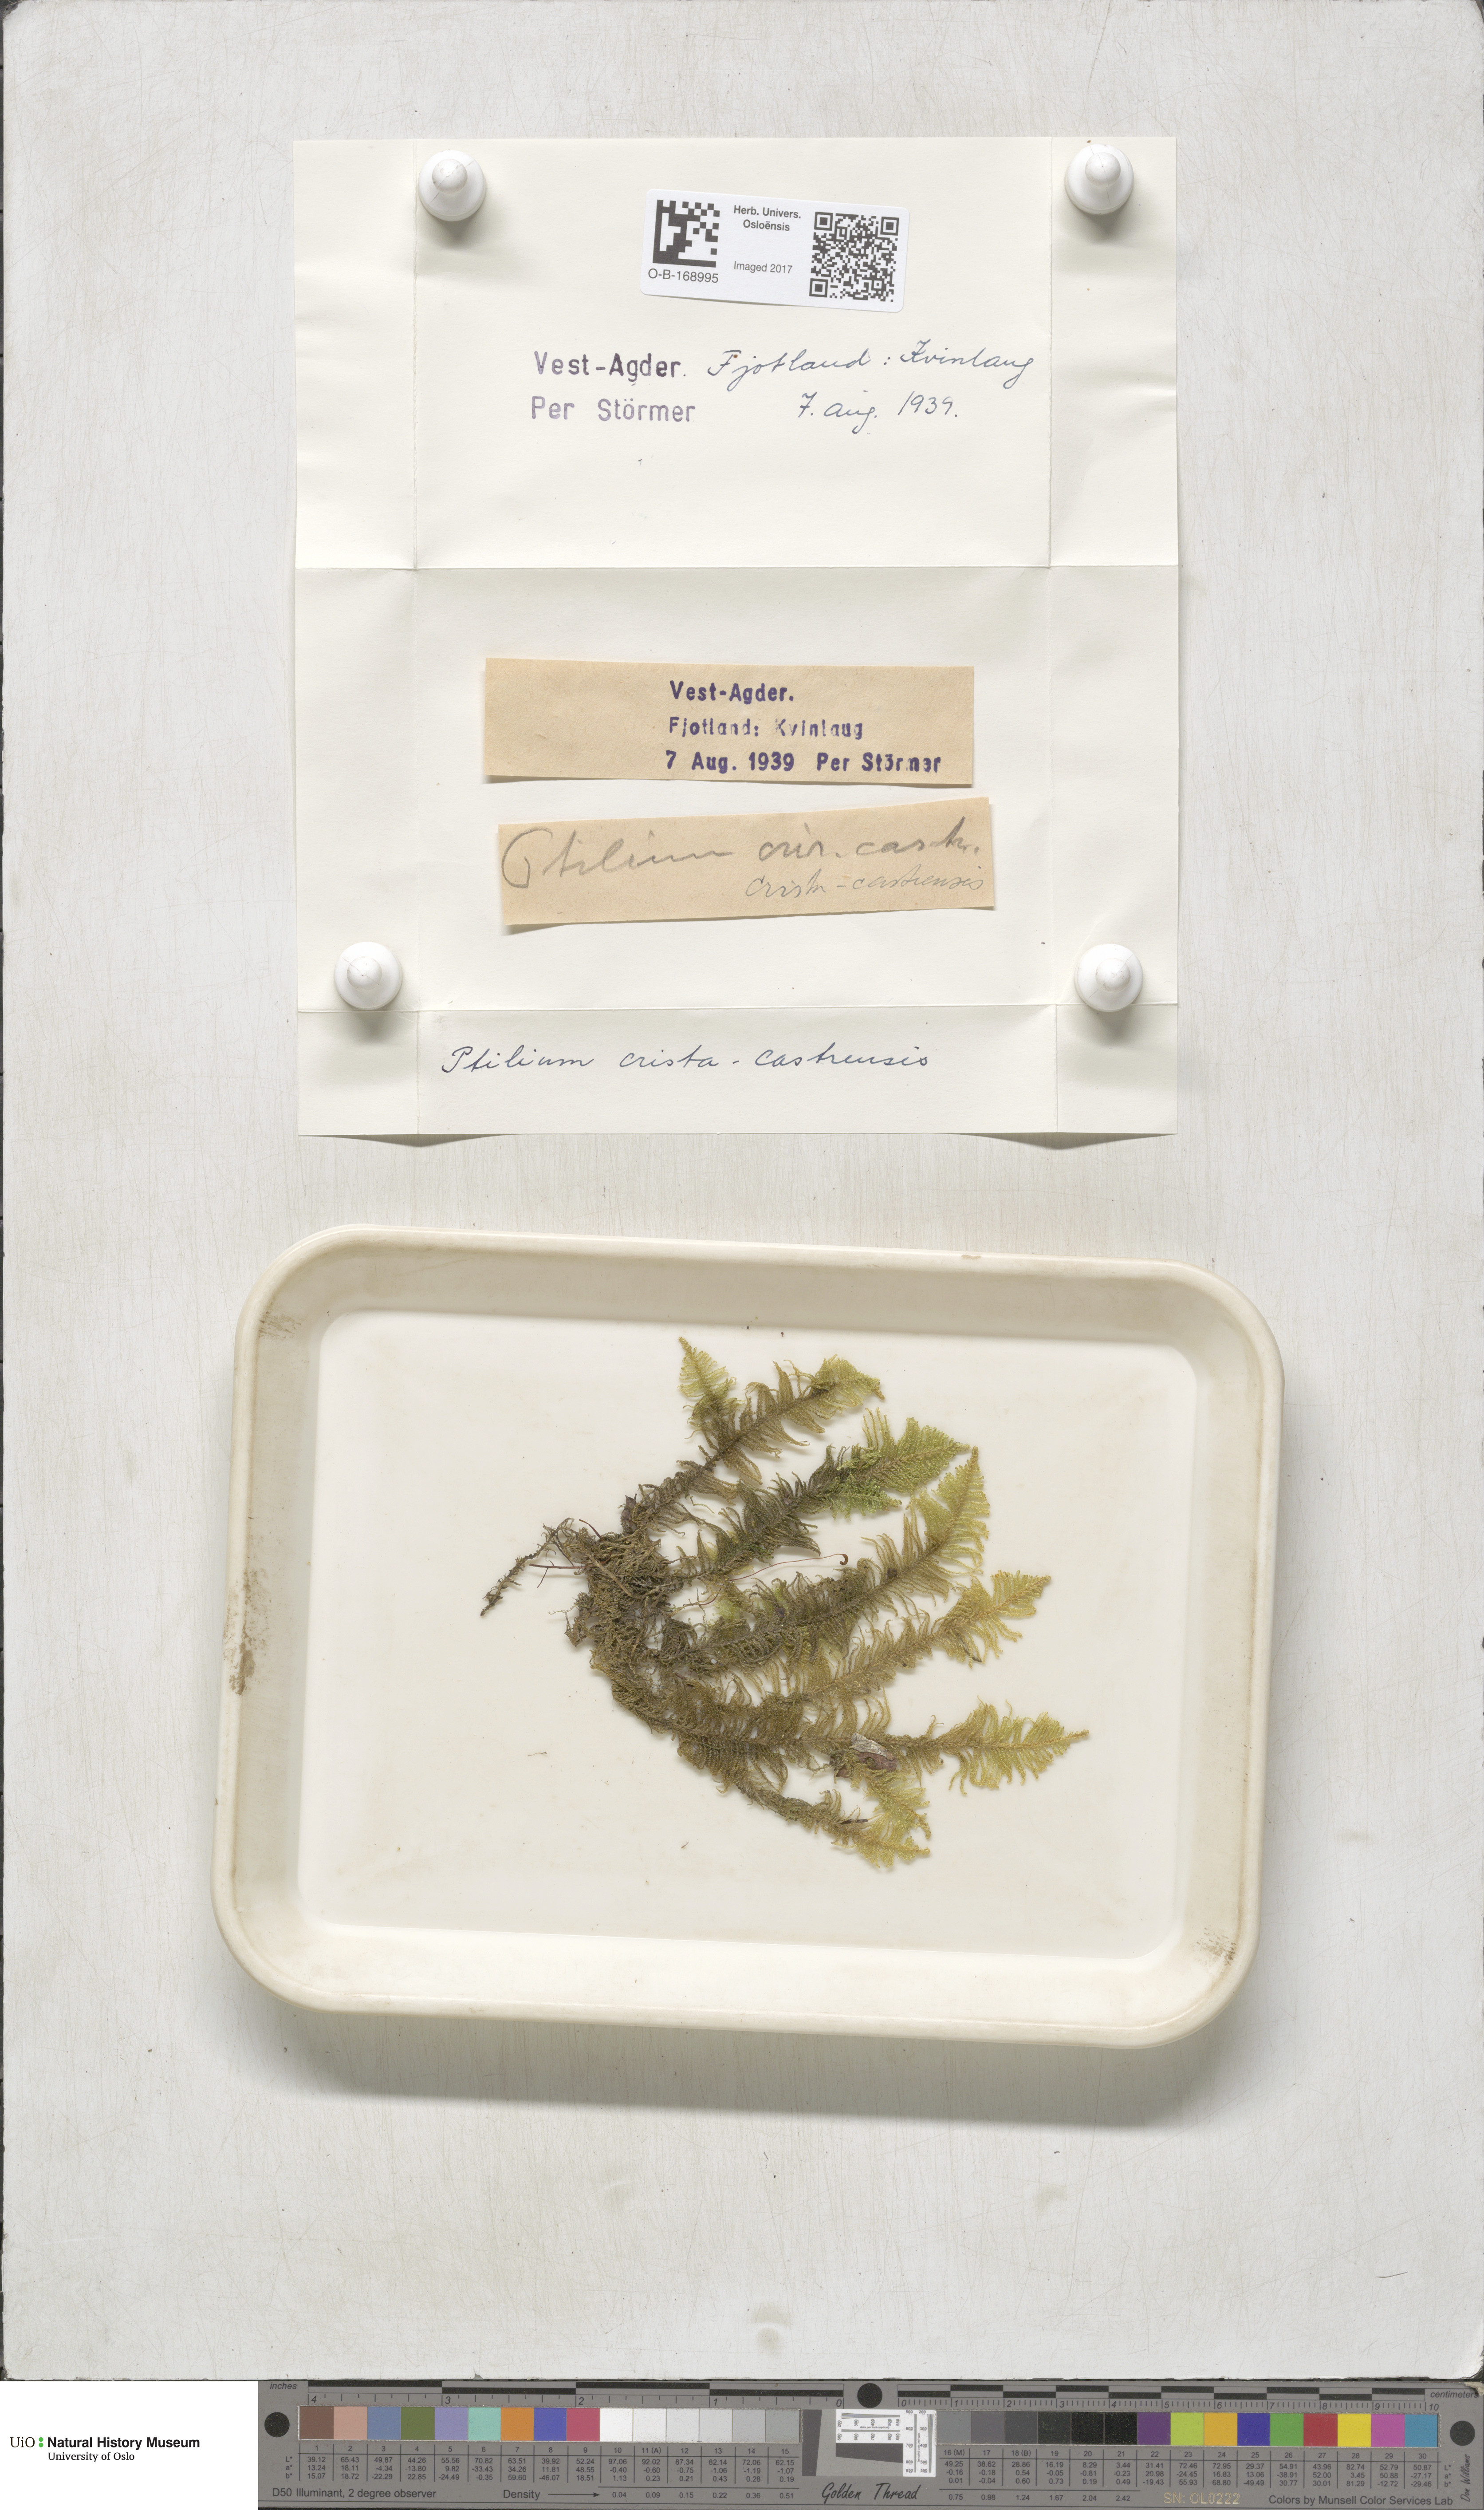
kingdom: Plantae
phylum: Bryophyta
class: Bryopsida
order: Hypnales
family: Pylaisiaceae
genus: Ptilium
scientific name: Ptilium crista-castrensis
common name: Knight's plume moss
